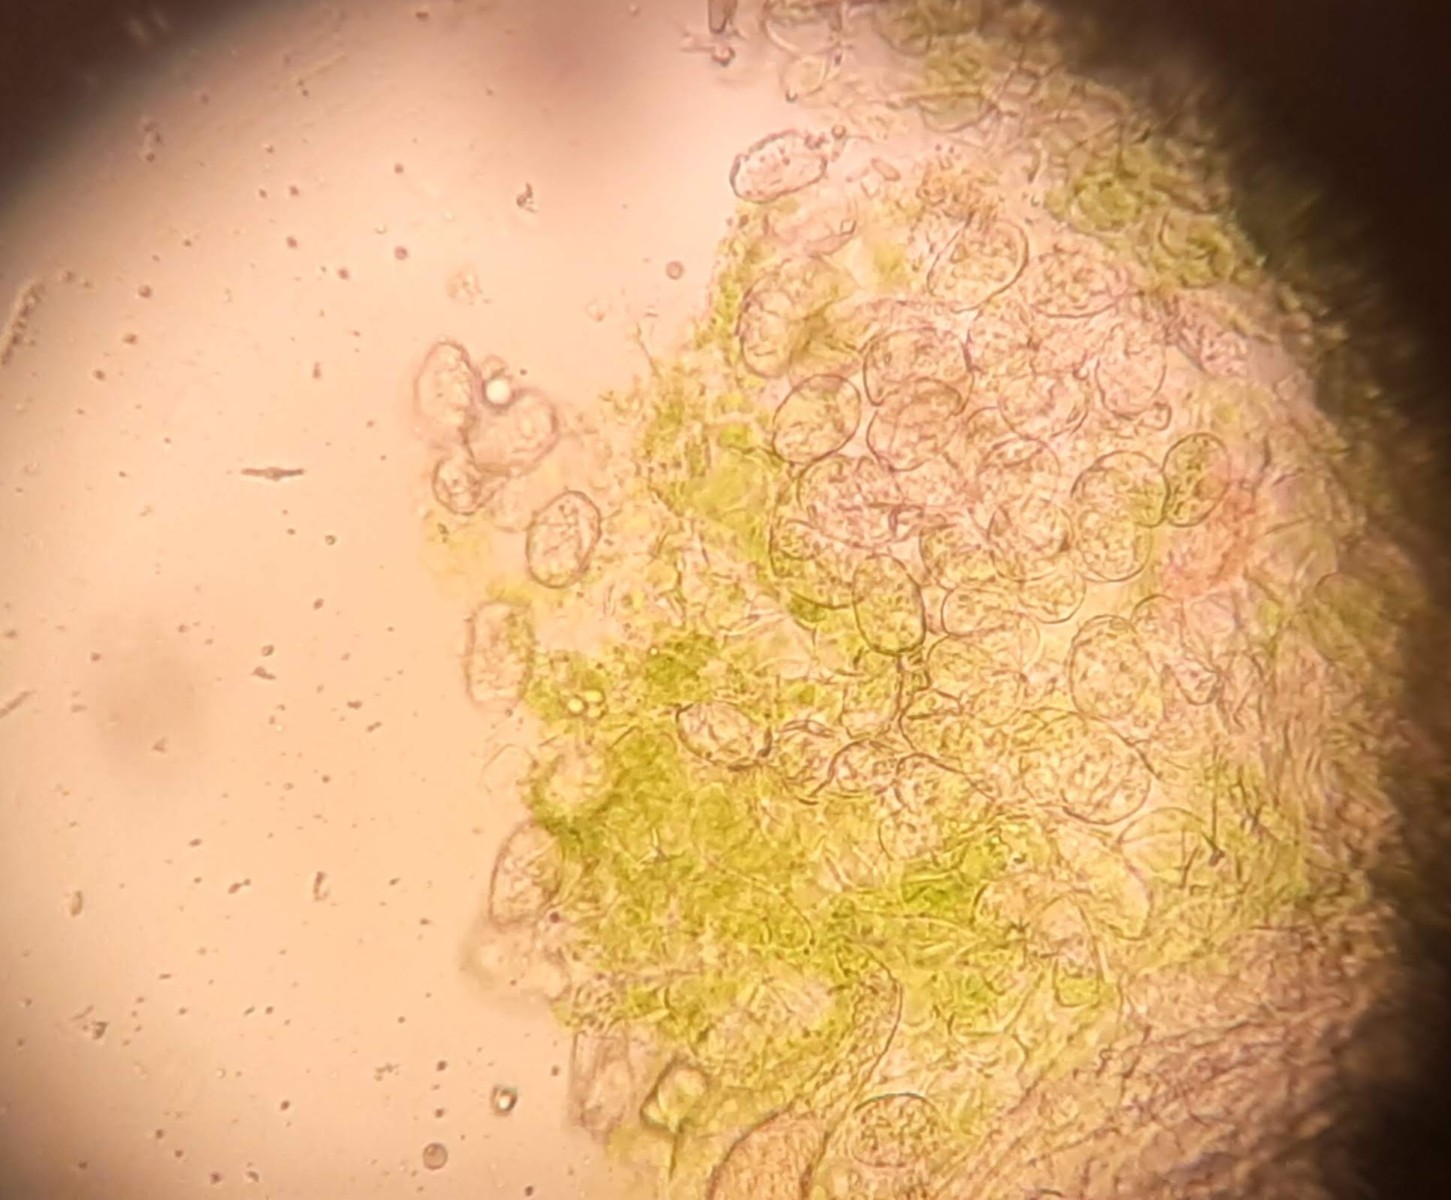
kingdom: Fungi
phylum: Ascomycota
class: Leotiomycetes
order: Helotiales
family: Erysiphaceae
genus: Podosphaera
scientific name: Podosphaera leucotricha
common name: æble-meldug
